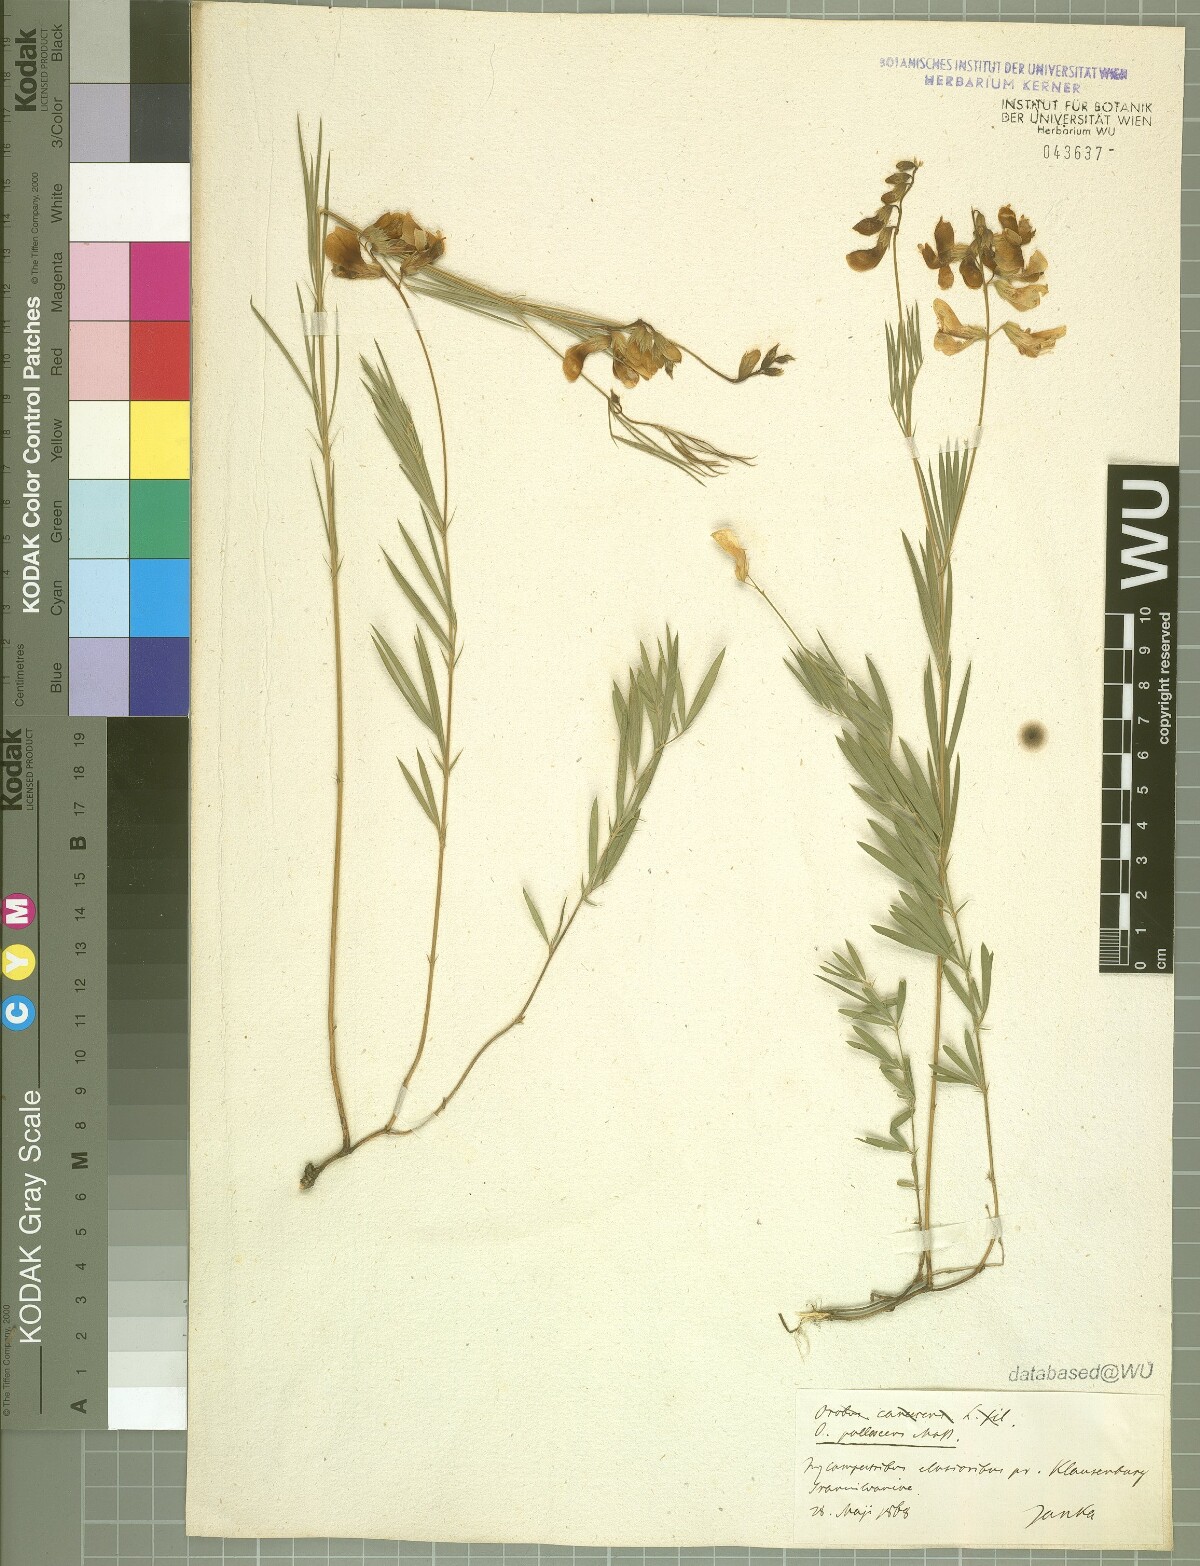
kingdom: Plantae
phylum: Tracheophyta
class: Magnoliopsida
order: Fabales
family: Fabaceae
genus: Lathyrus
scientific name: Lathyrus pallescens
